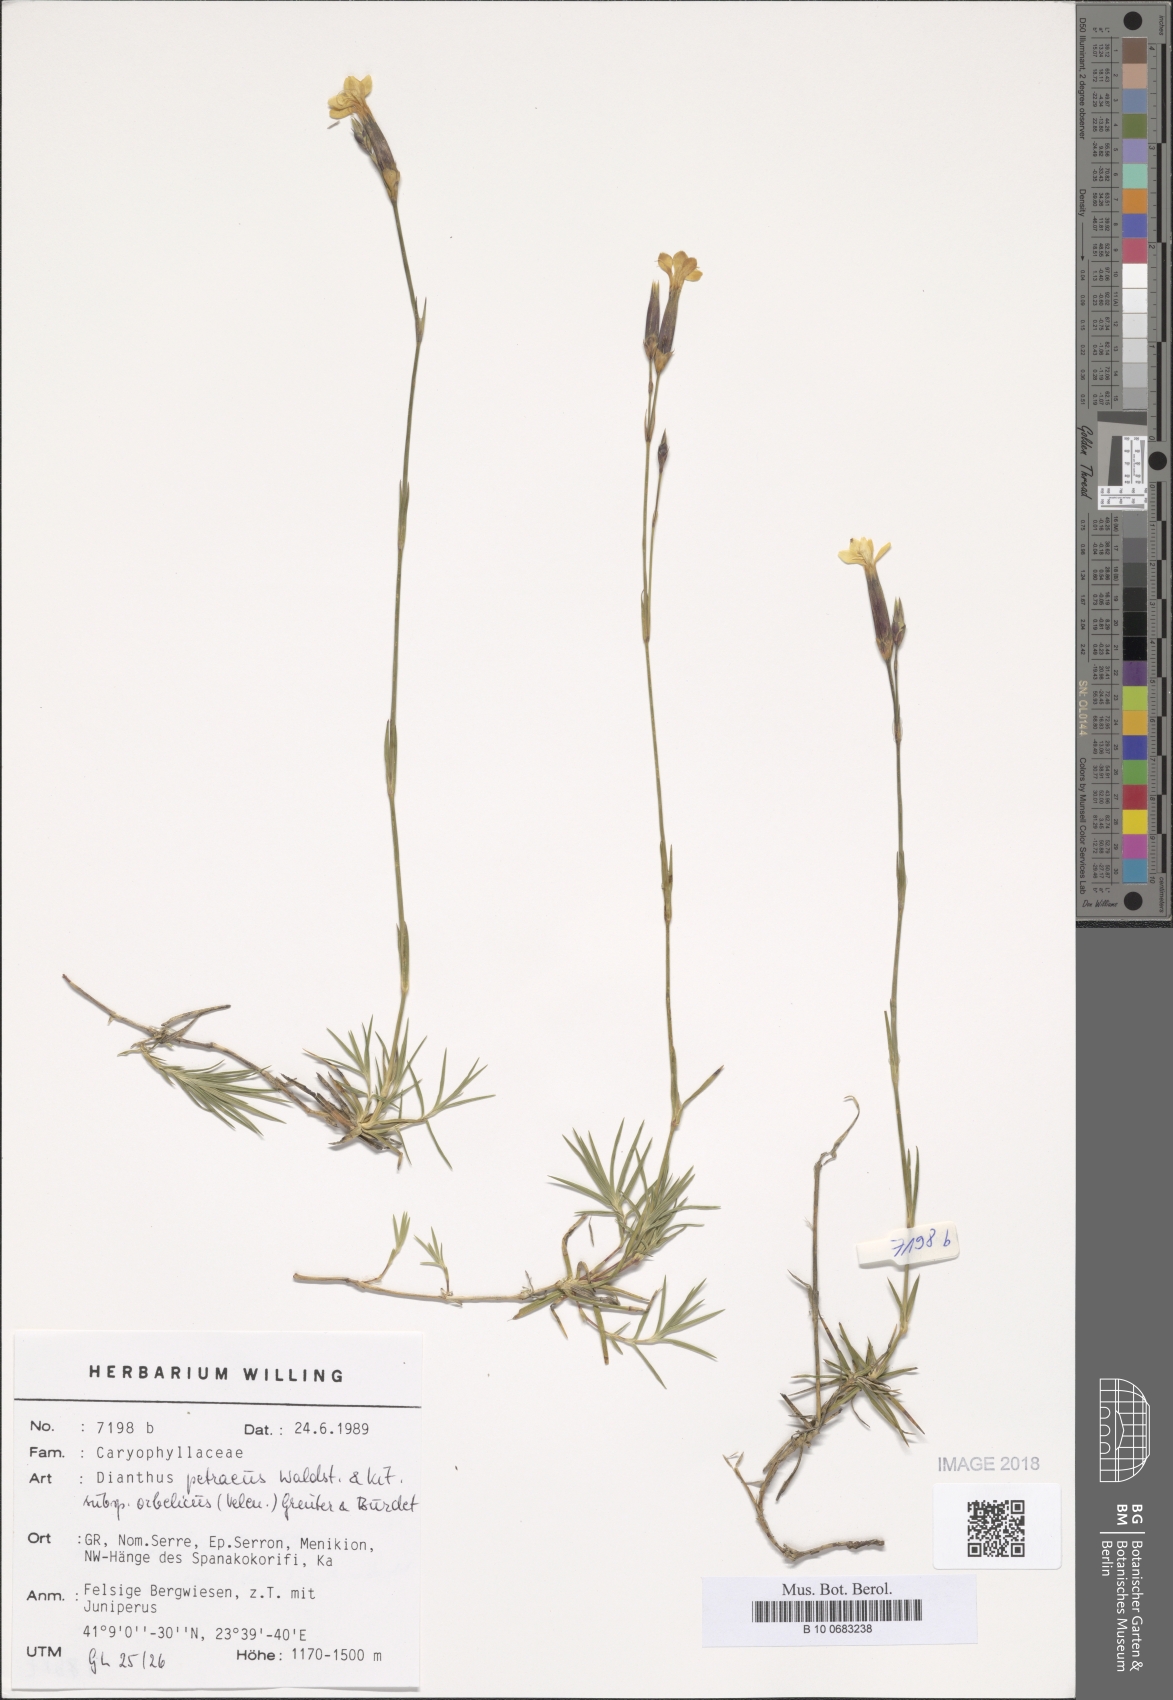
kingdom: Plantae
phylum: Tracheophyta
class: Magnoliopsida
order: Caryophyllales
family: Caryophyllaceae
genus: Dianthus
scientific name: Dianthus petraeus
